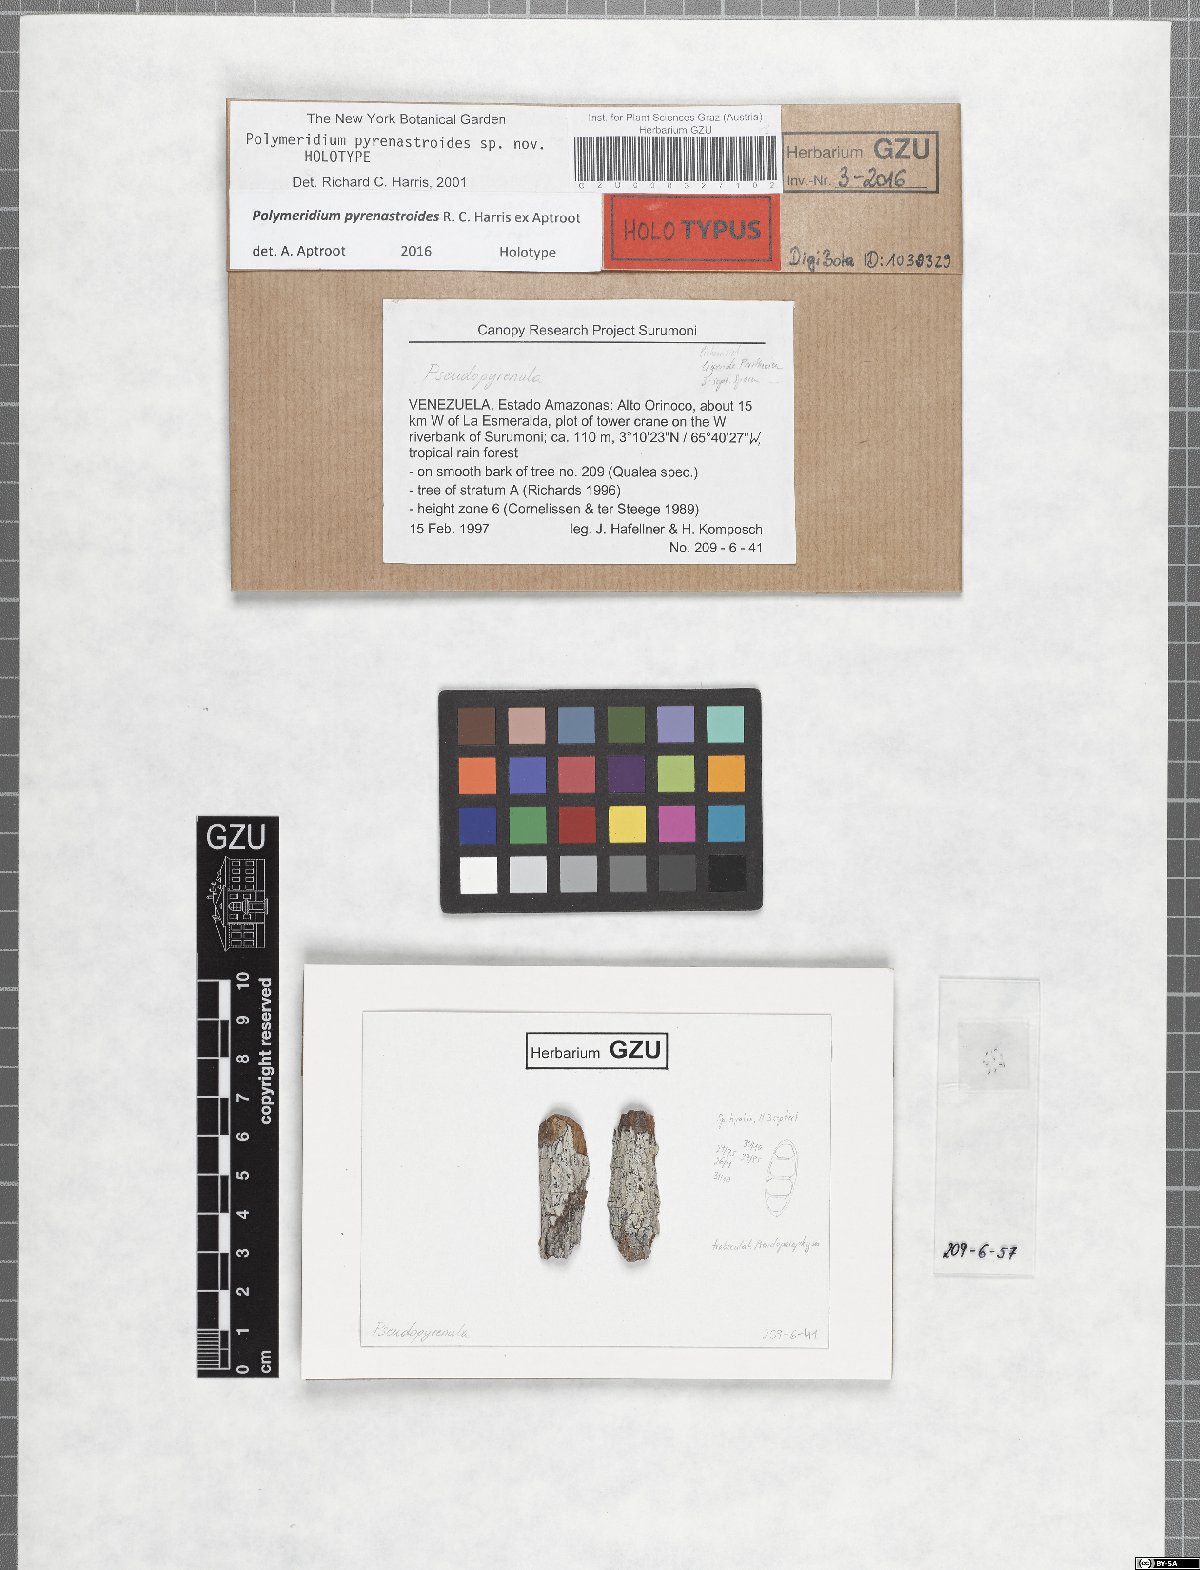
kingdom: Fungi
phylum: Ascomycota
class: Dothideomycetes
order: Trypetheliales
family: Trypetheliaceae
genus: Polymeridium
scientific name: Polymeridium pyrenastroides
